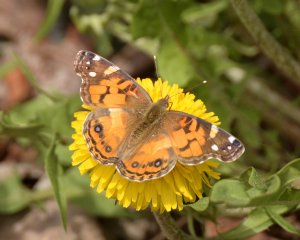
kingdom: Animalia
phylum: Arthropoda
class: Insecta
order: Lepidoptera
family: Nymphalidae
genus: Vanessa
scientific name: Vanessa virginiensis
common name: American Lady
